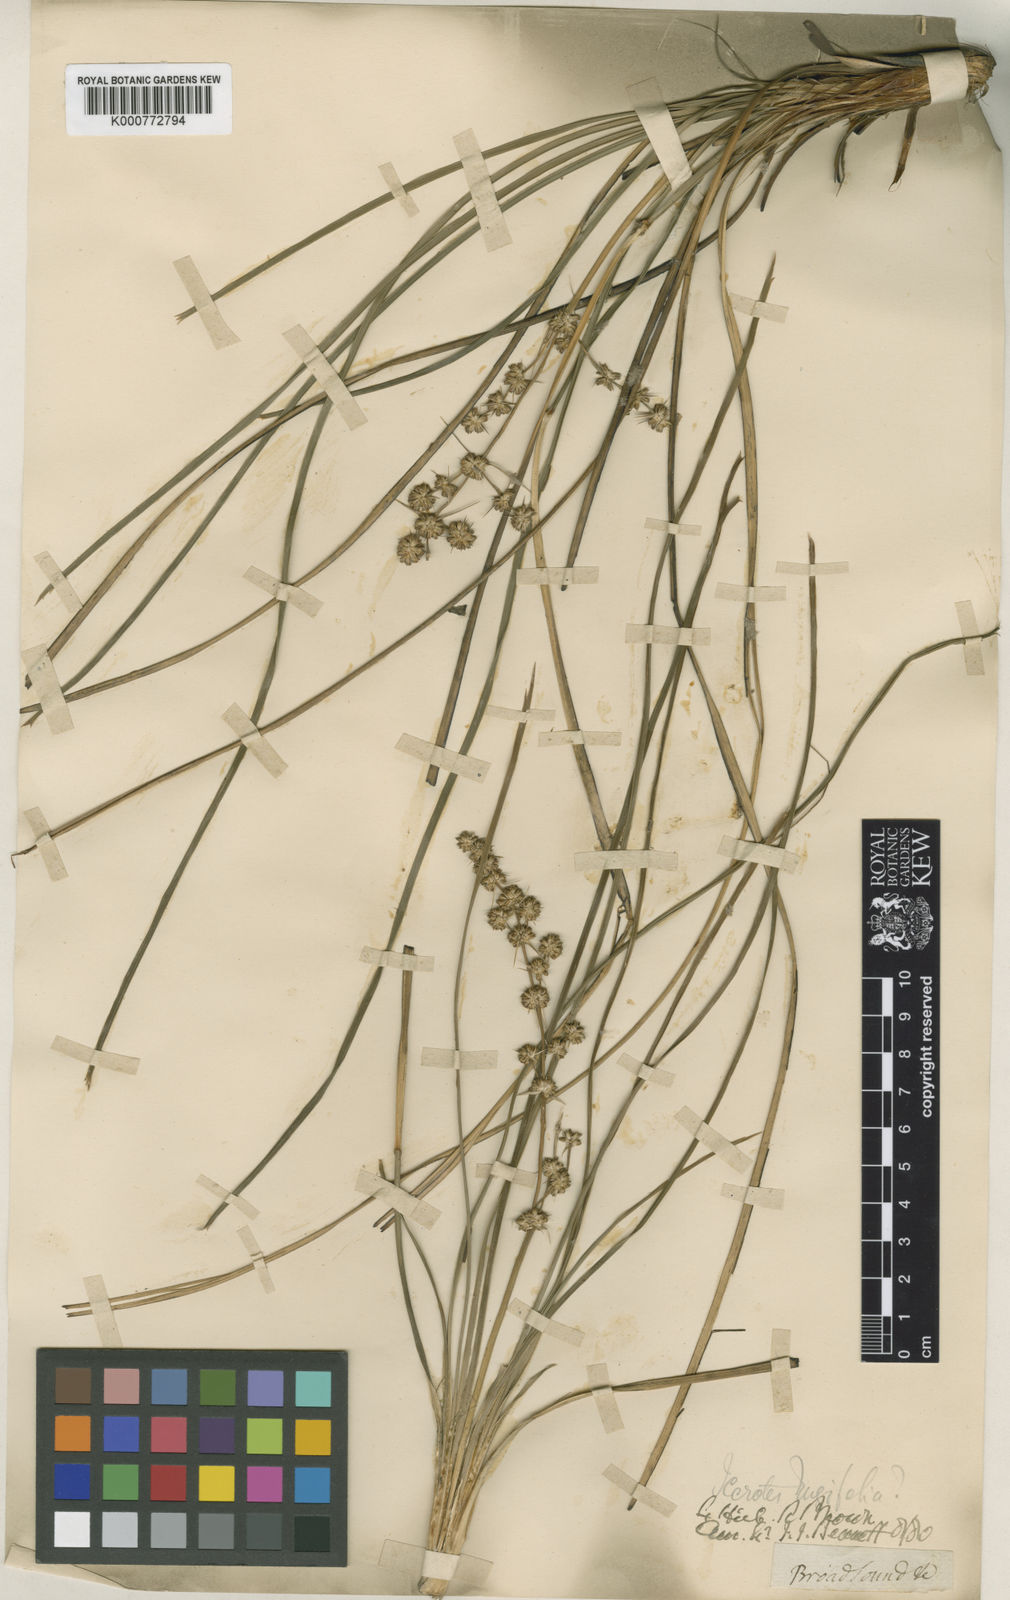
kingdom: Plantae
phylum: Tracheophyta
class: Liliopsida
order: Asparagales
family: Asparagaceae
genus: Lomandra
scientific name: Lomandra longifolia
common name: Longleaf mat-rush
